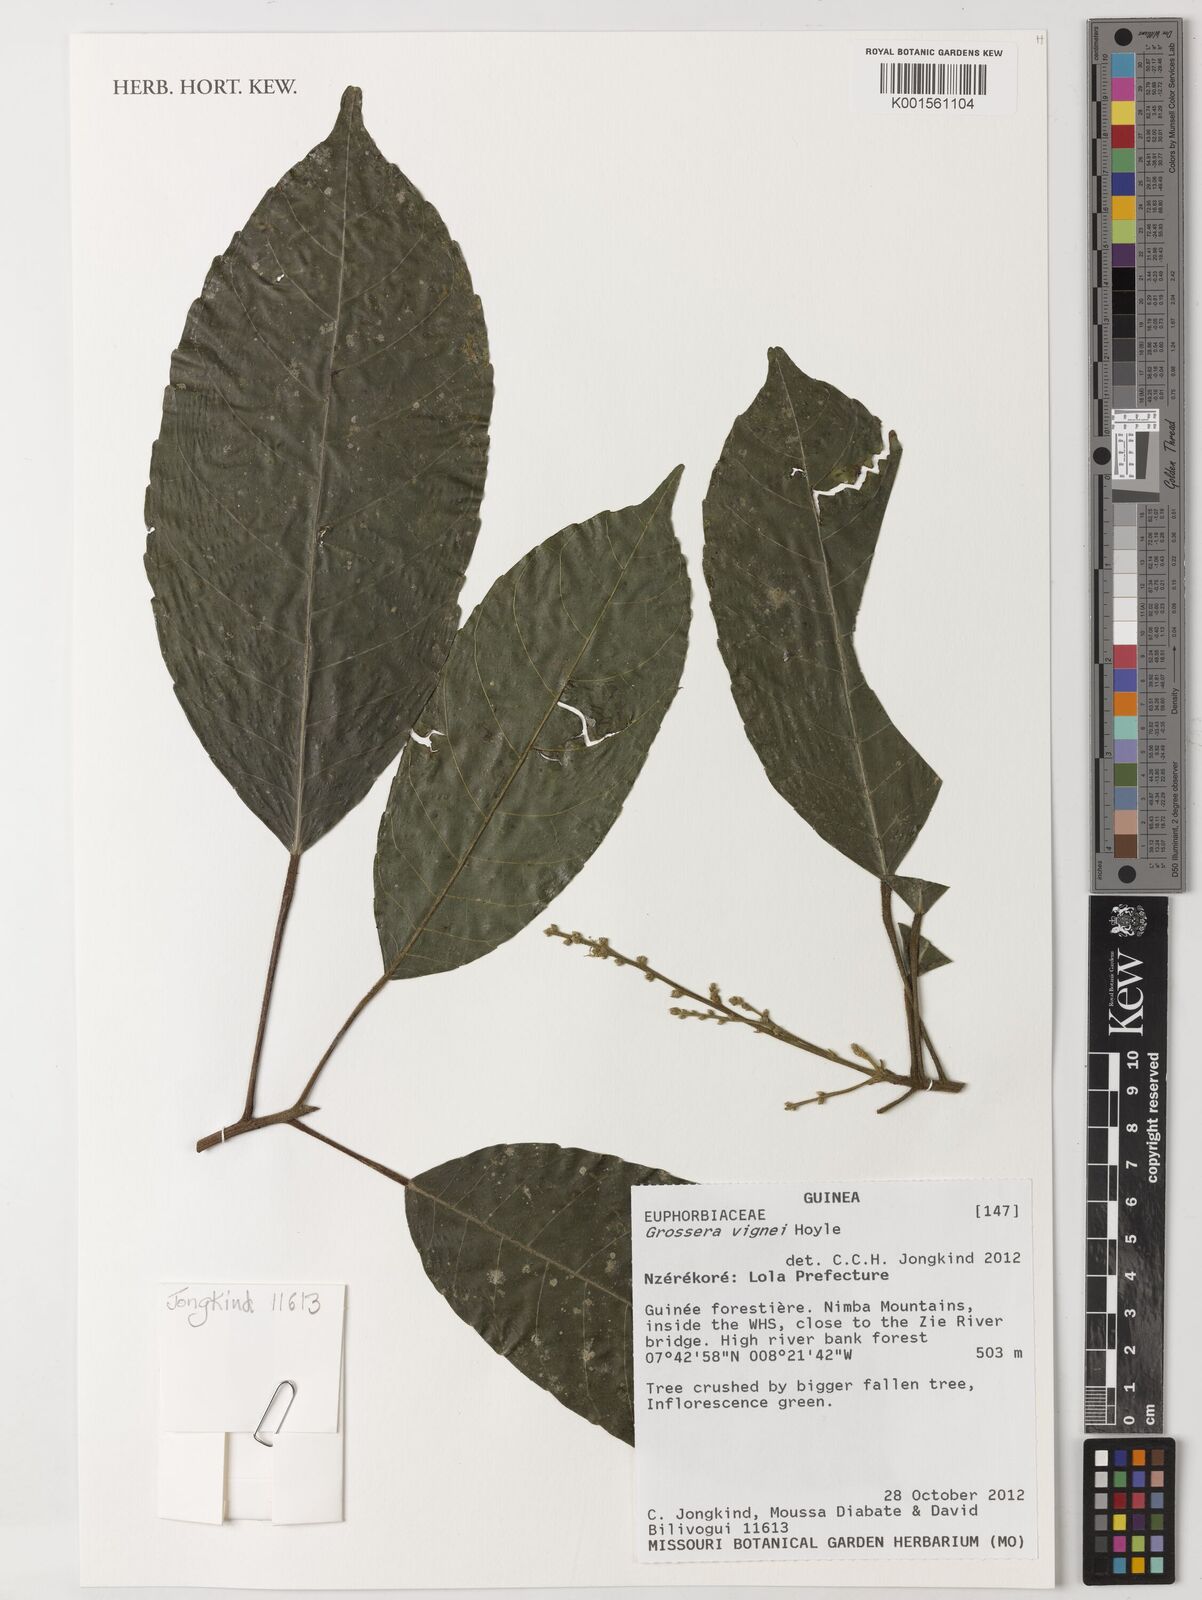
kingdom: Plantae
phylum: Tracheophyta
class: Magnoliopsida
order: Malpighiales
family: Euphorbiaceae
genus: Grossera
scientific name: Grossera vignei
